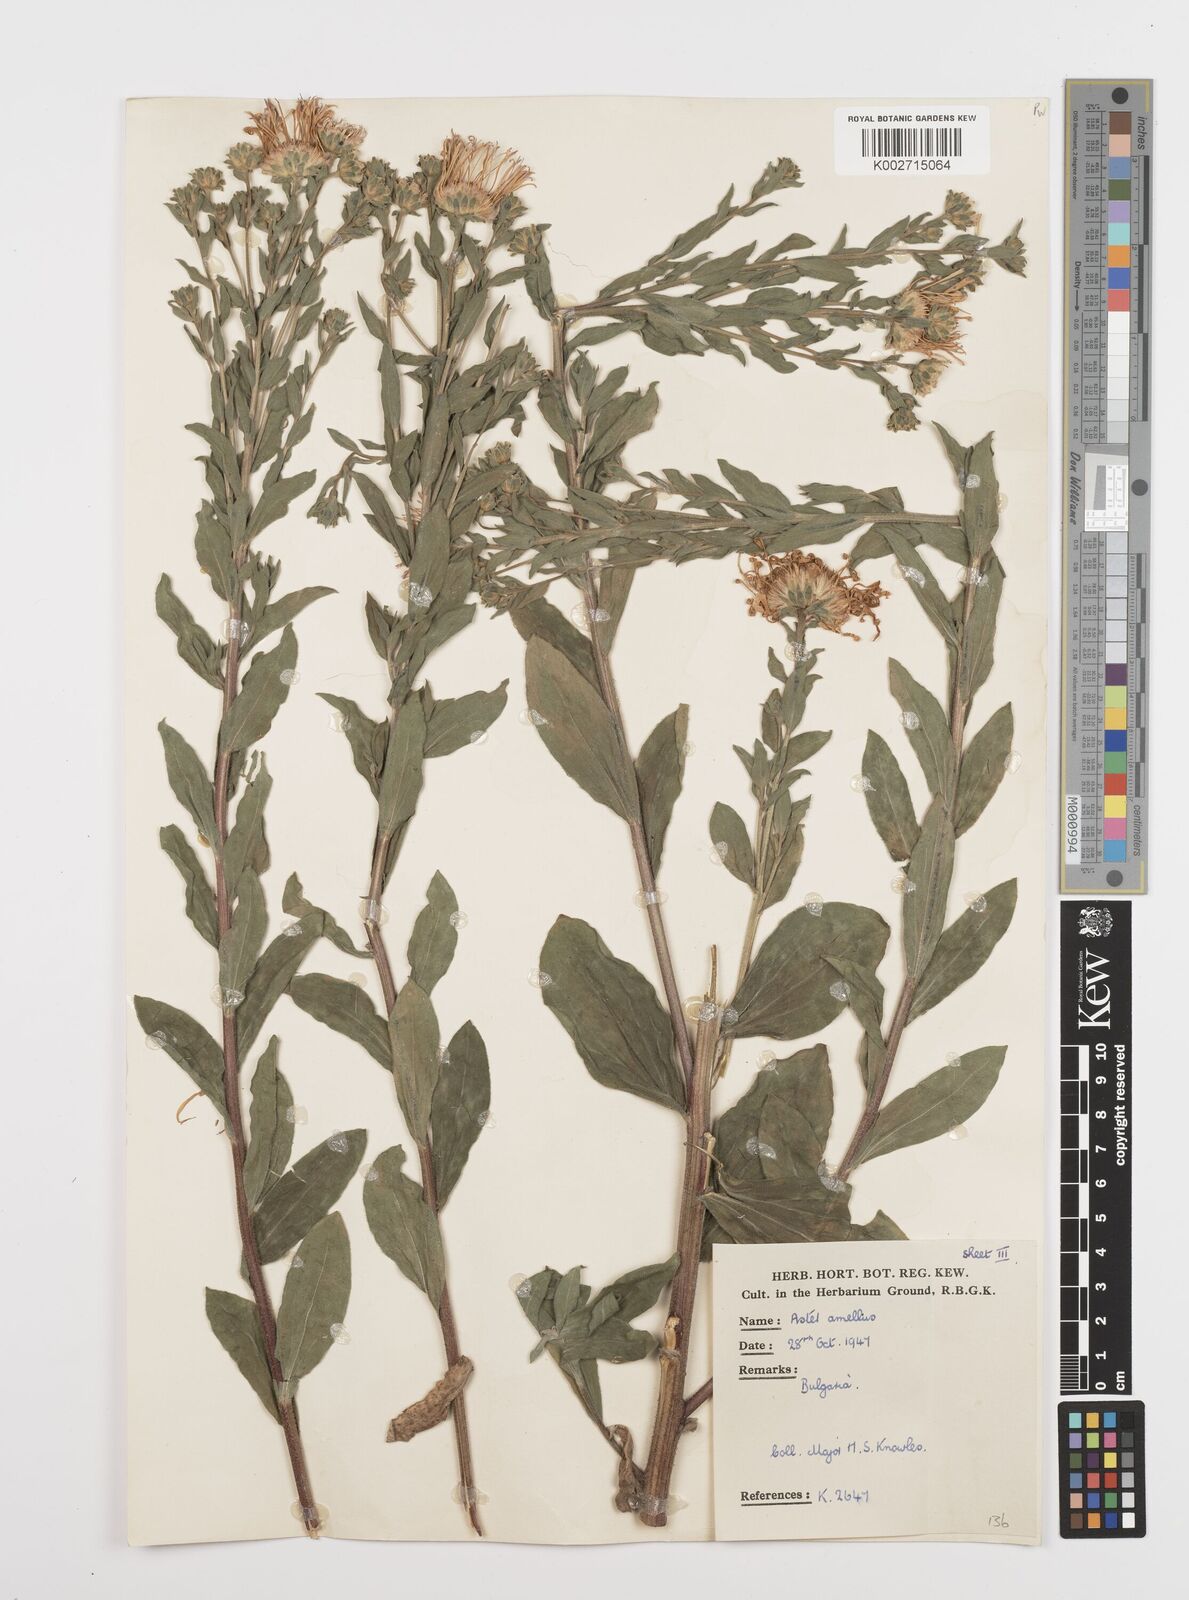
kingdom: Plantae
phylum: Tracheophyta
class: Magnoliopsida
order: Asterales
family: Asteraceae
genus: Aster
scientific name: Aster
